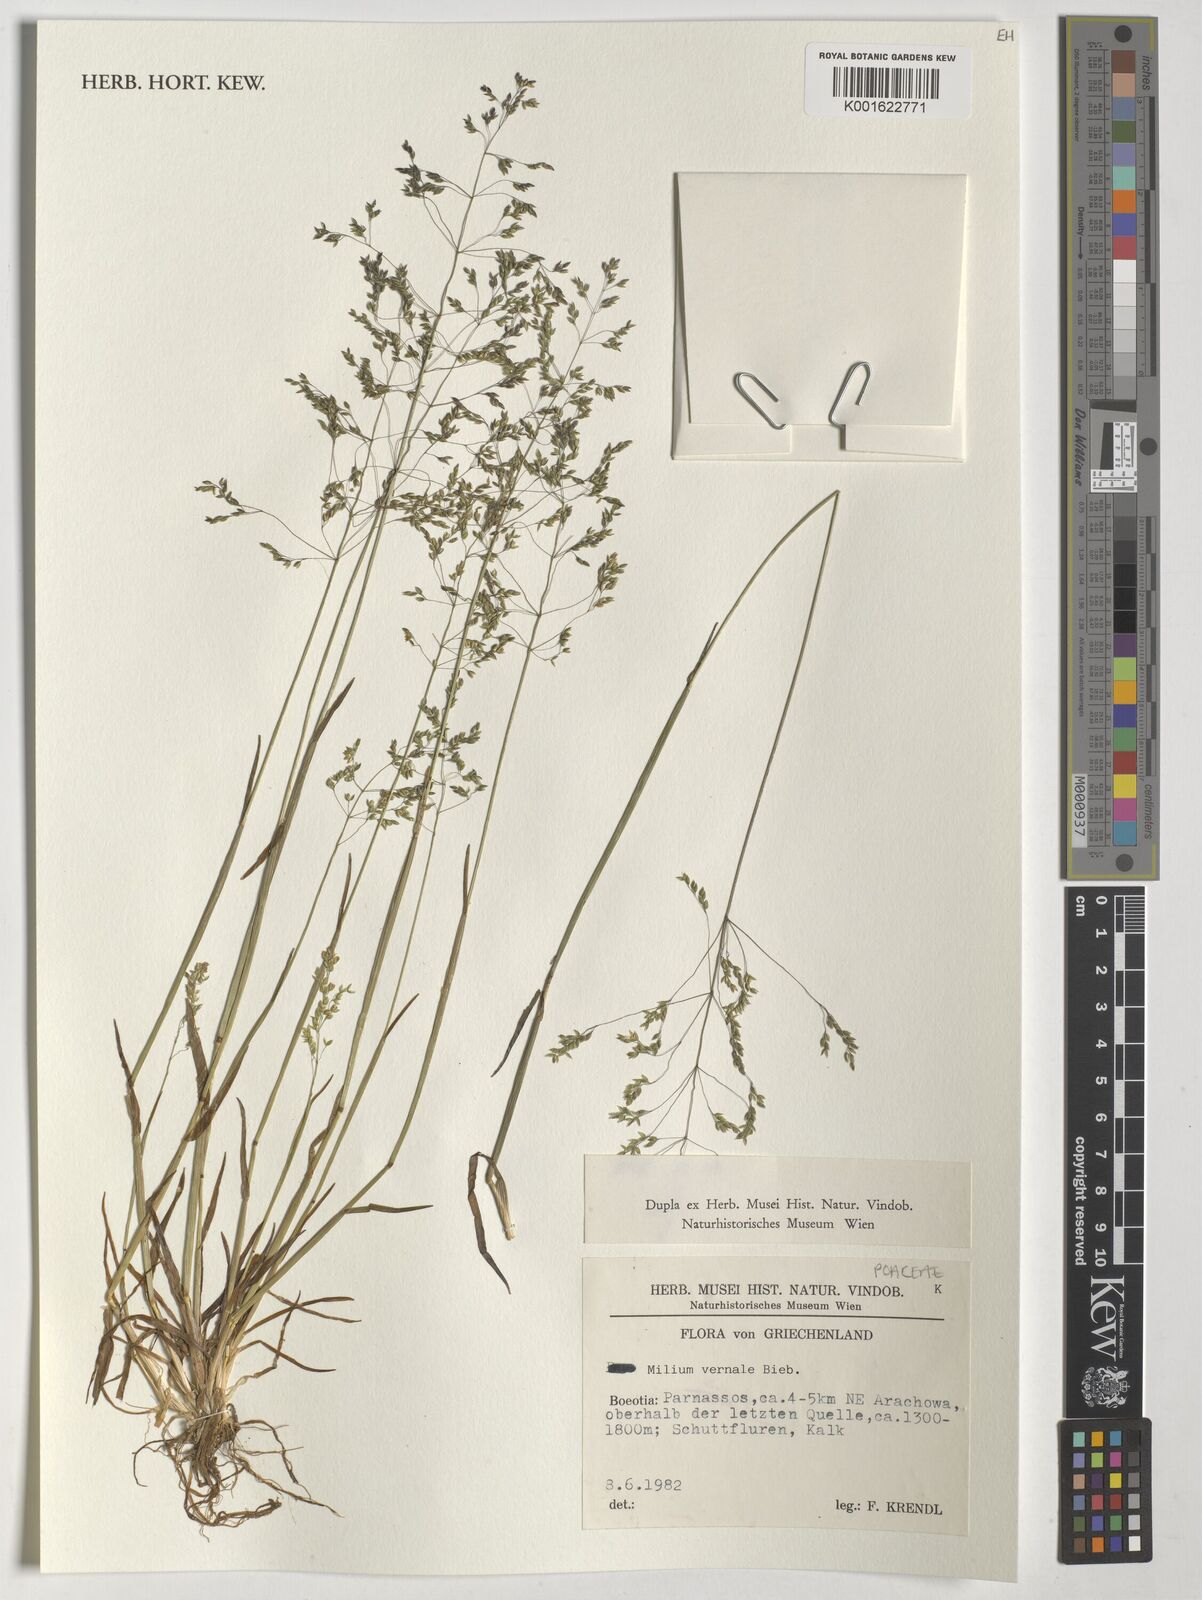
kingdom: Plantae
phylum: Tracheophyta
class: Liliopsida
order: Poales
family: Poaceae
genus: Milium
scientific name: Milium vernale
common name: Early millet
